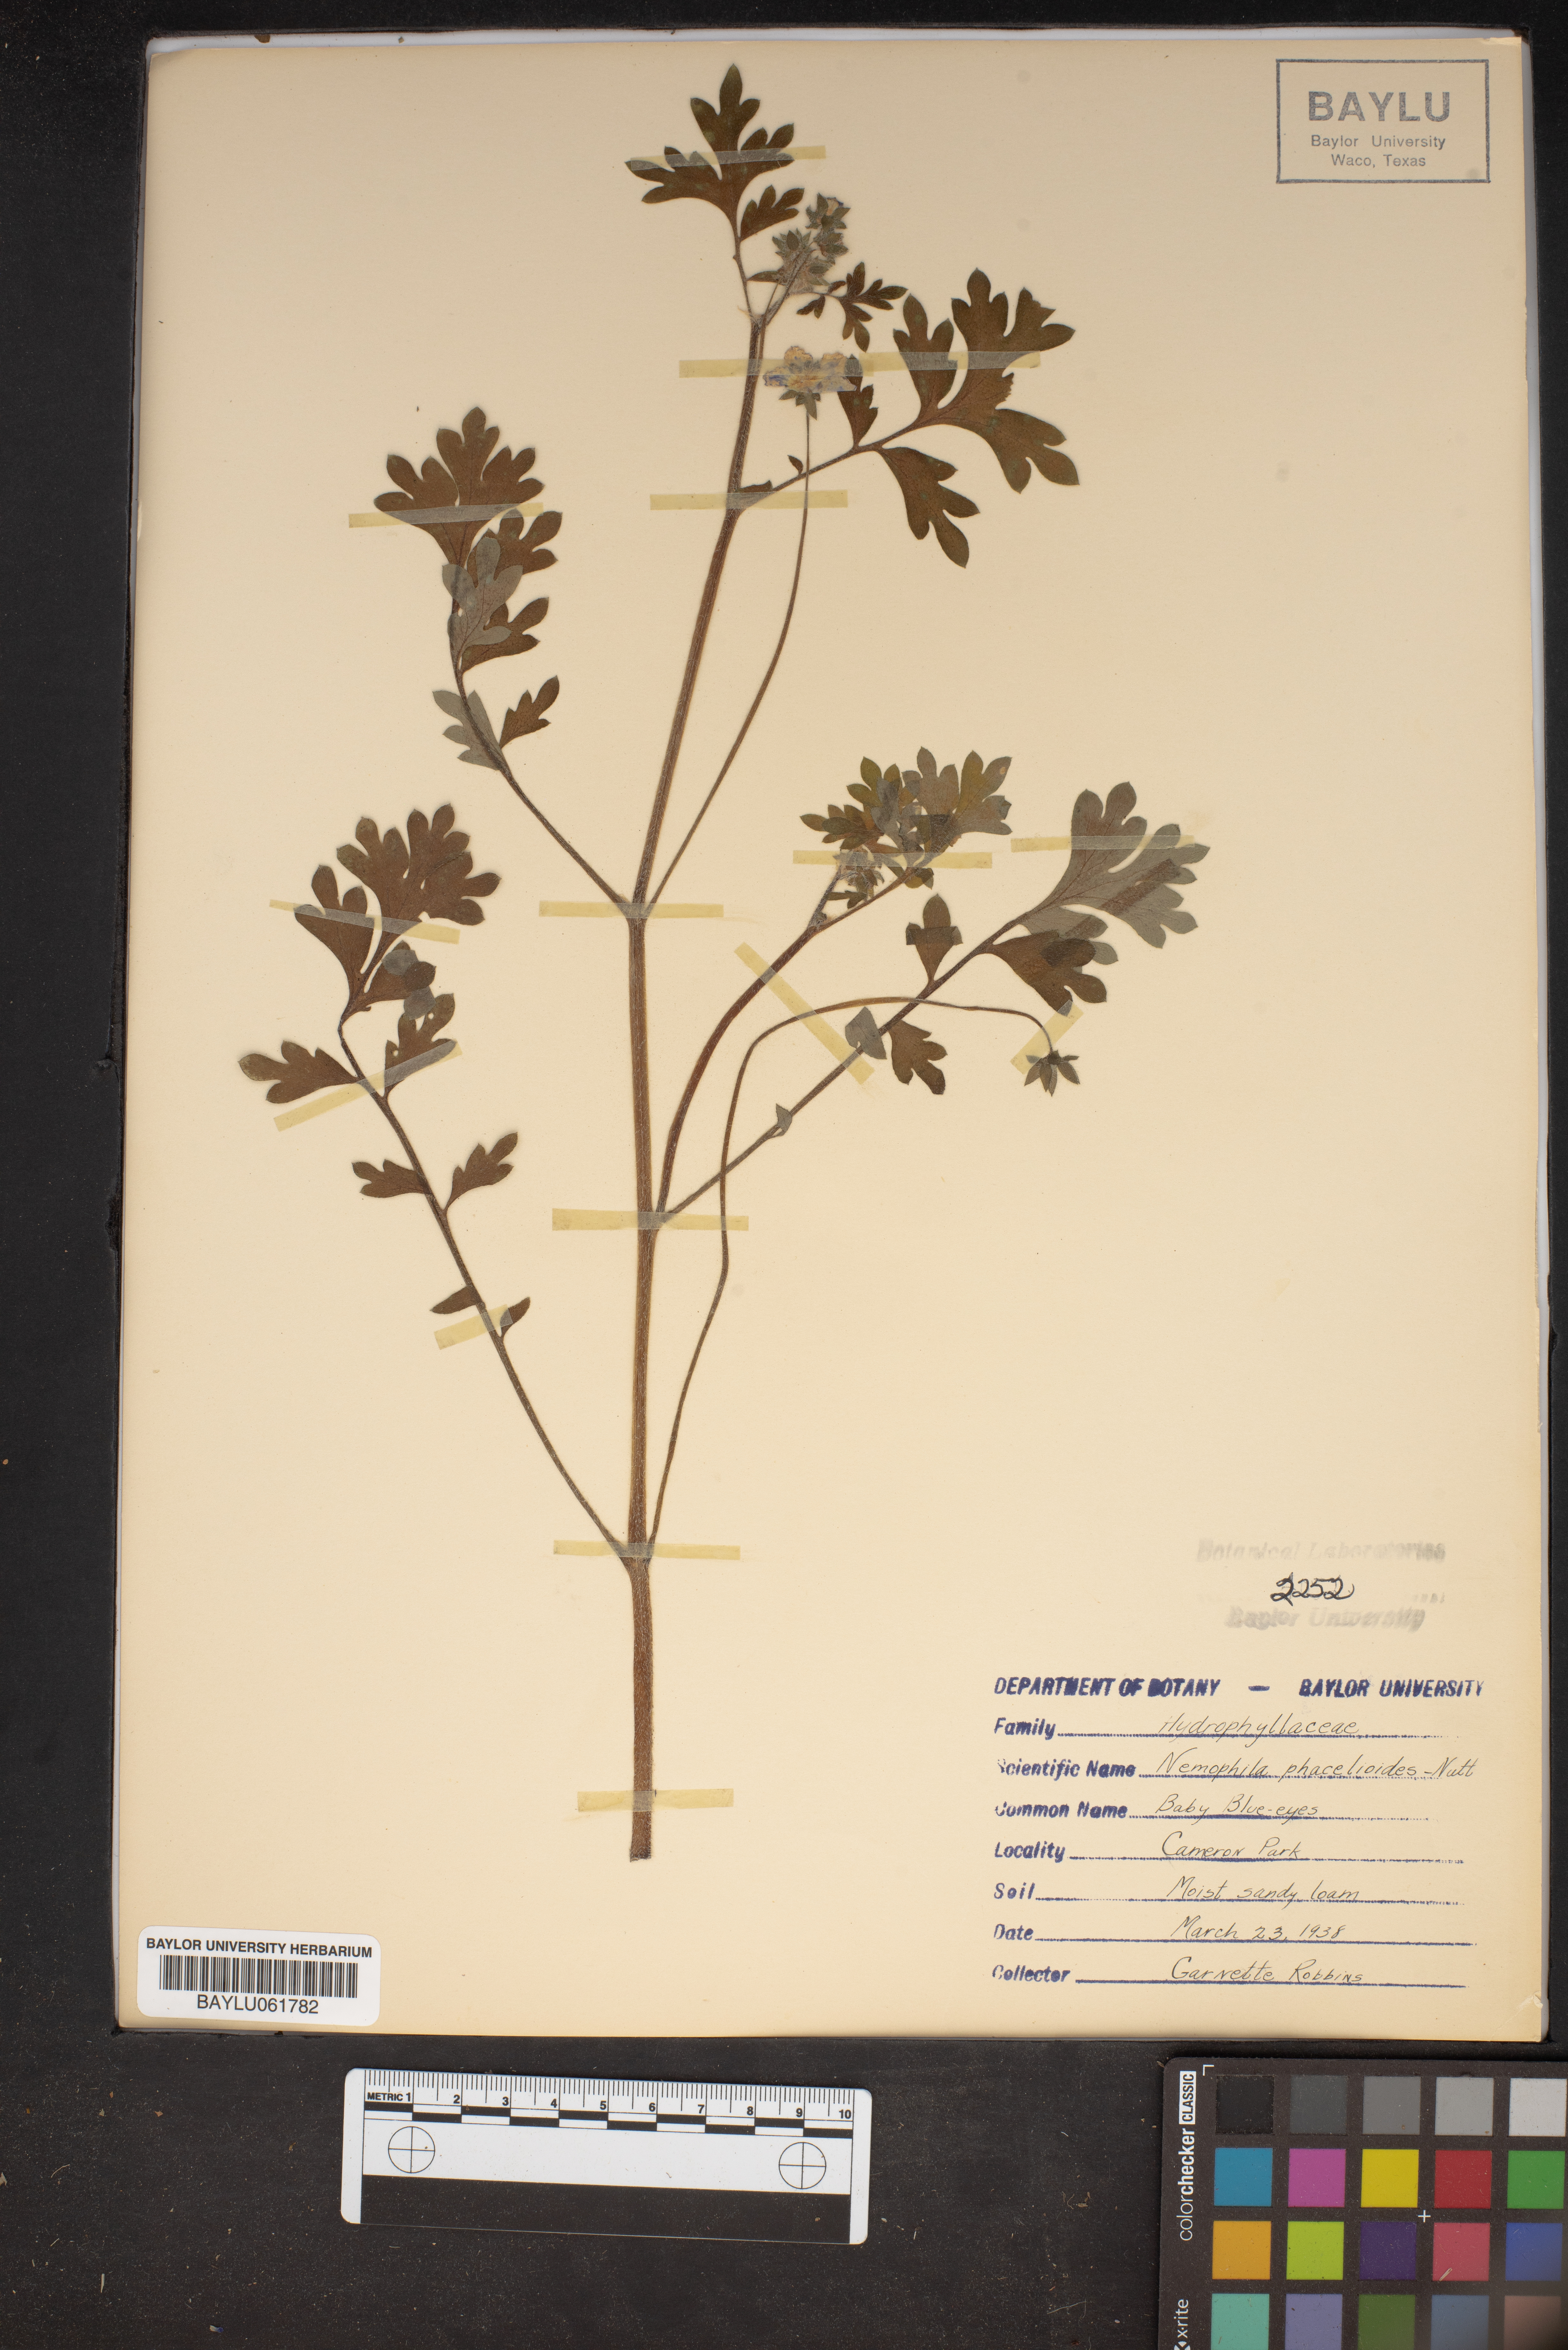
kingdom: Plantae
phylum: Tracheophyta
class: Magnoliopsida
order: Boraginales
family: Hydrophyllaceae
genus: Nemophila
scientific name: Nemophila phacelioides
